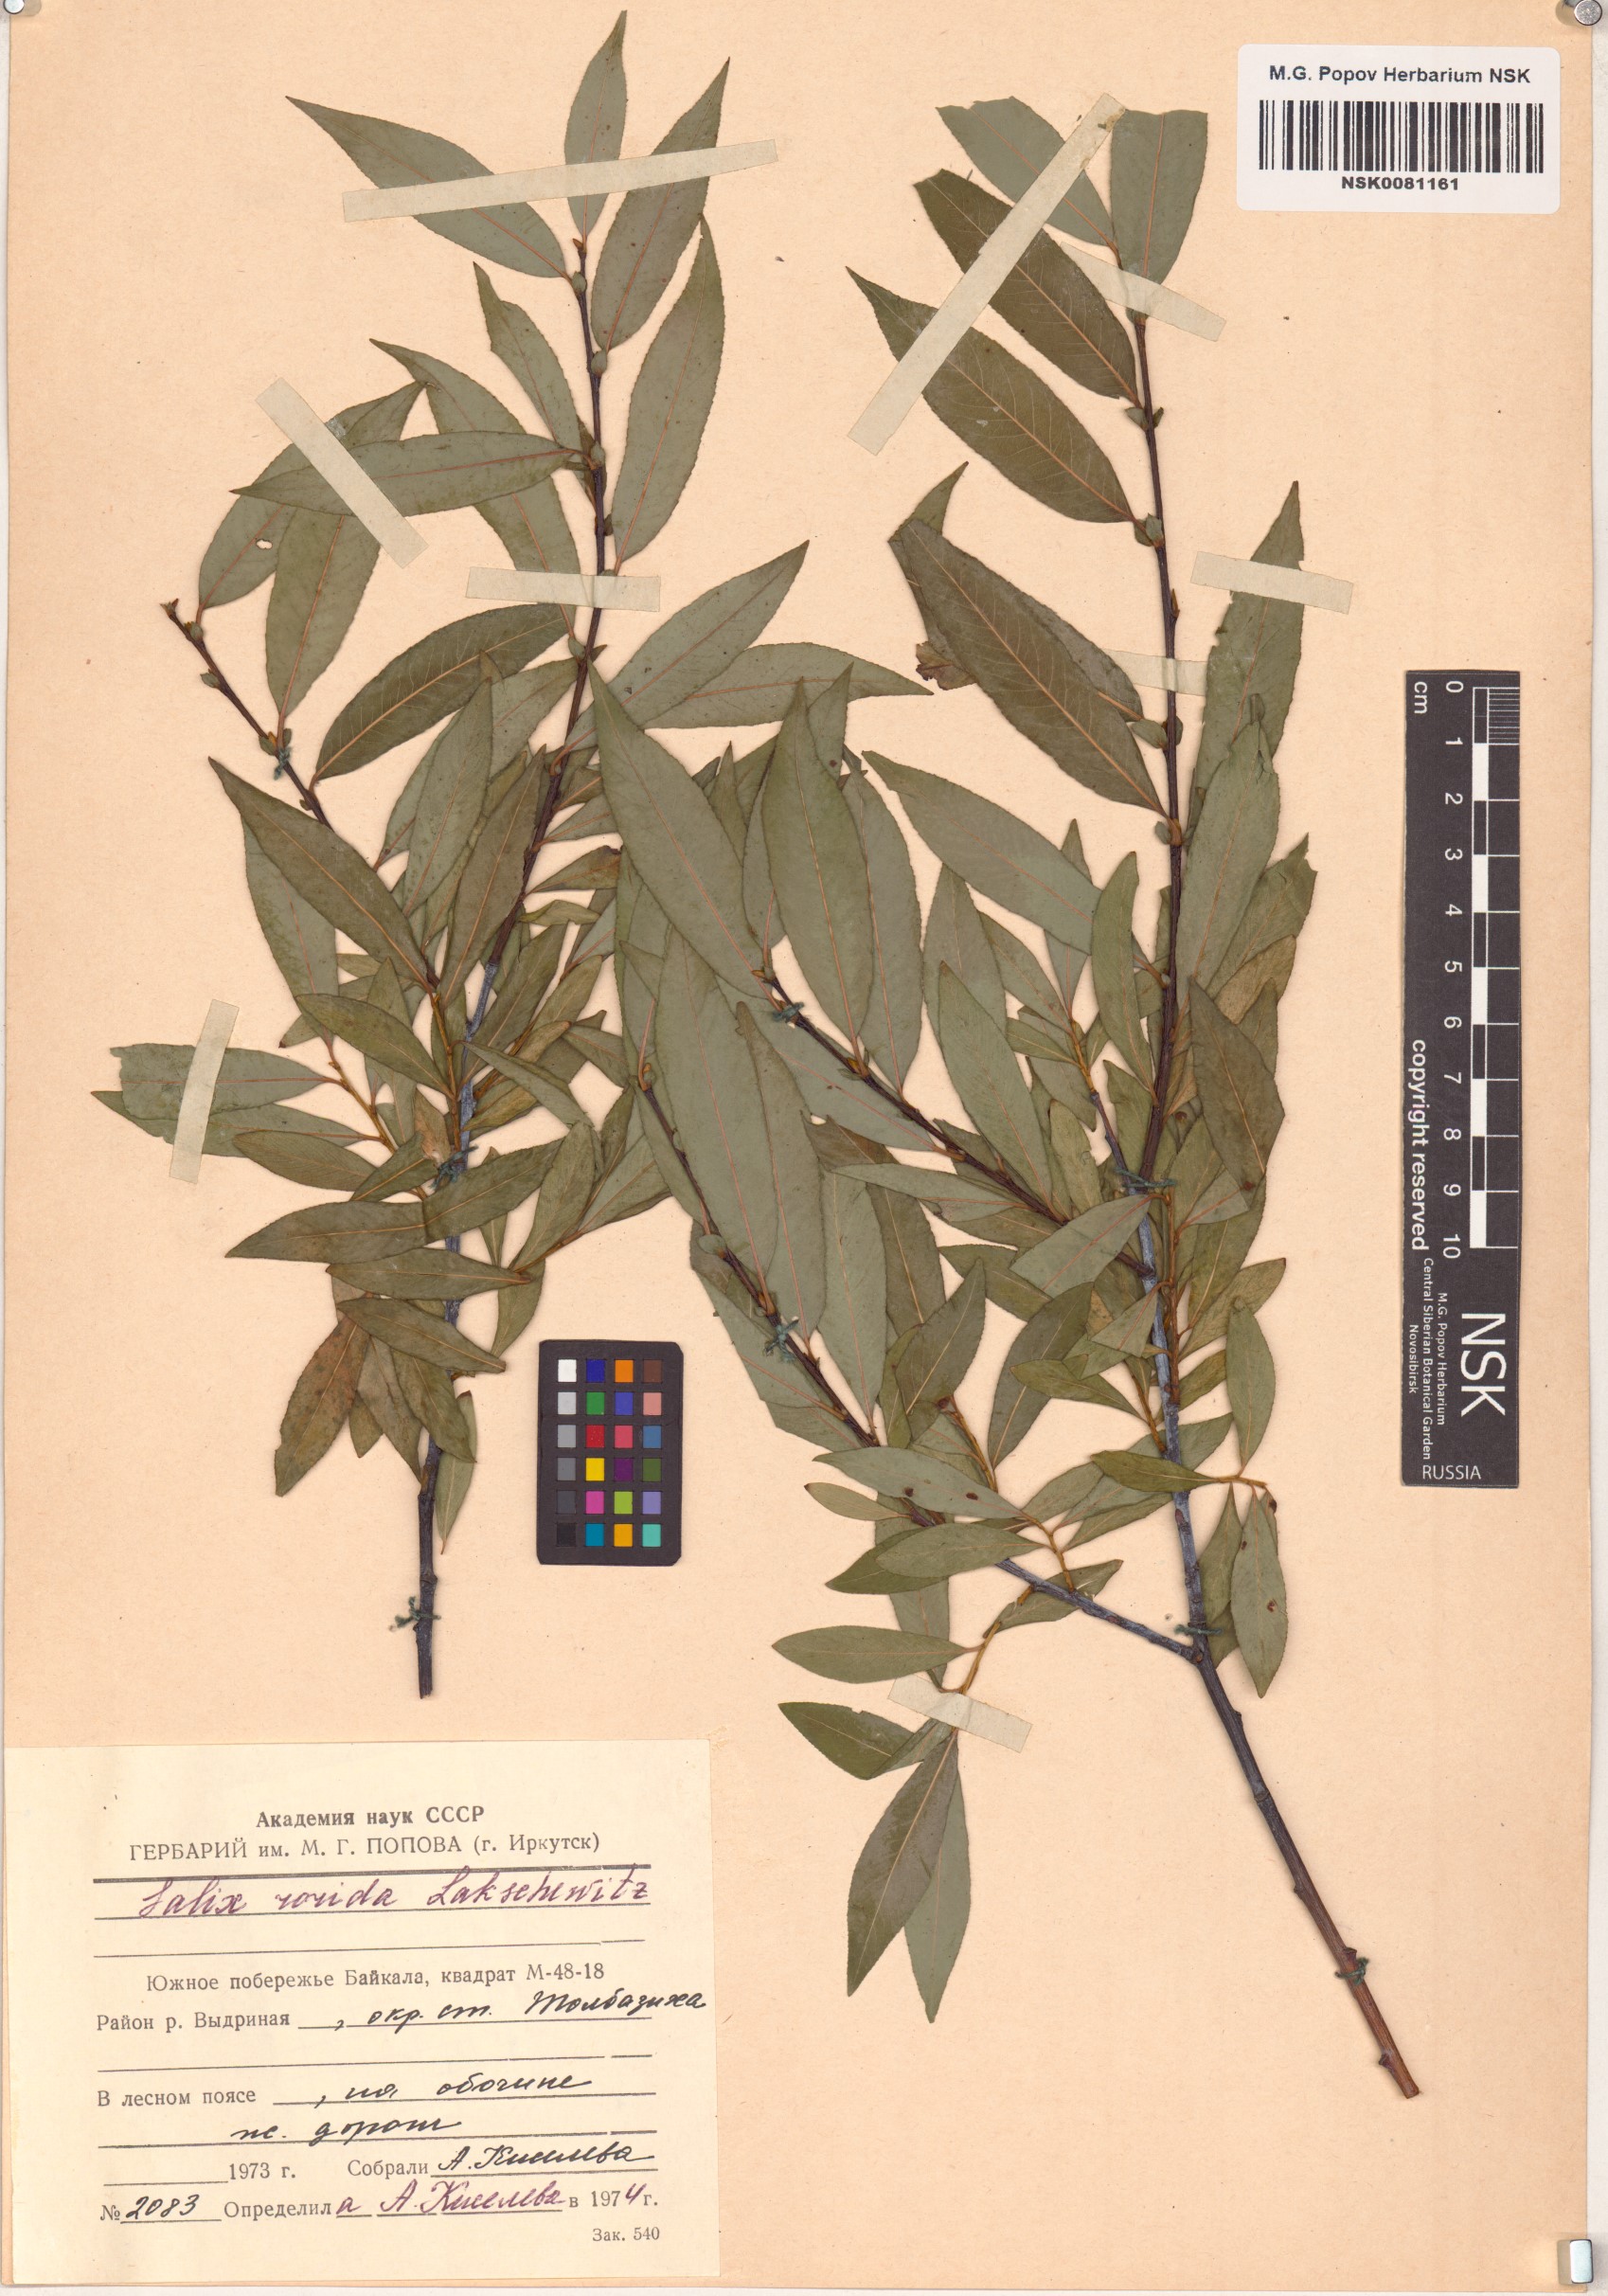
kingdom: Plantae
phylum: Tracheophyta
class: Magnoliopsida
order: Malpighiales
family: Salicaceae
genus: Salix
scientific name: Salix rorida
